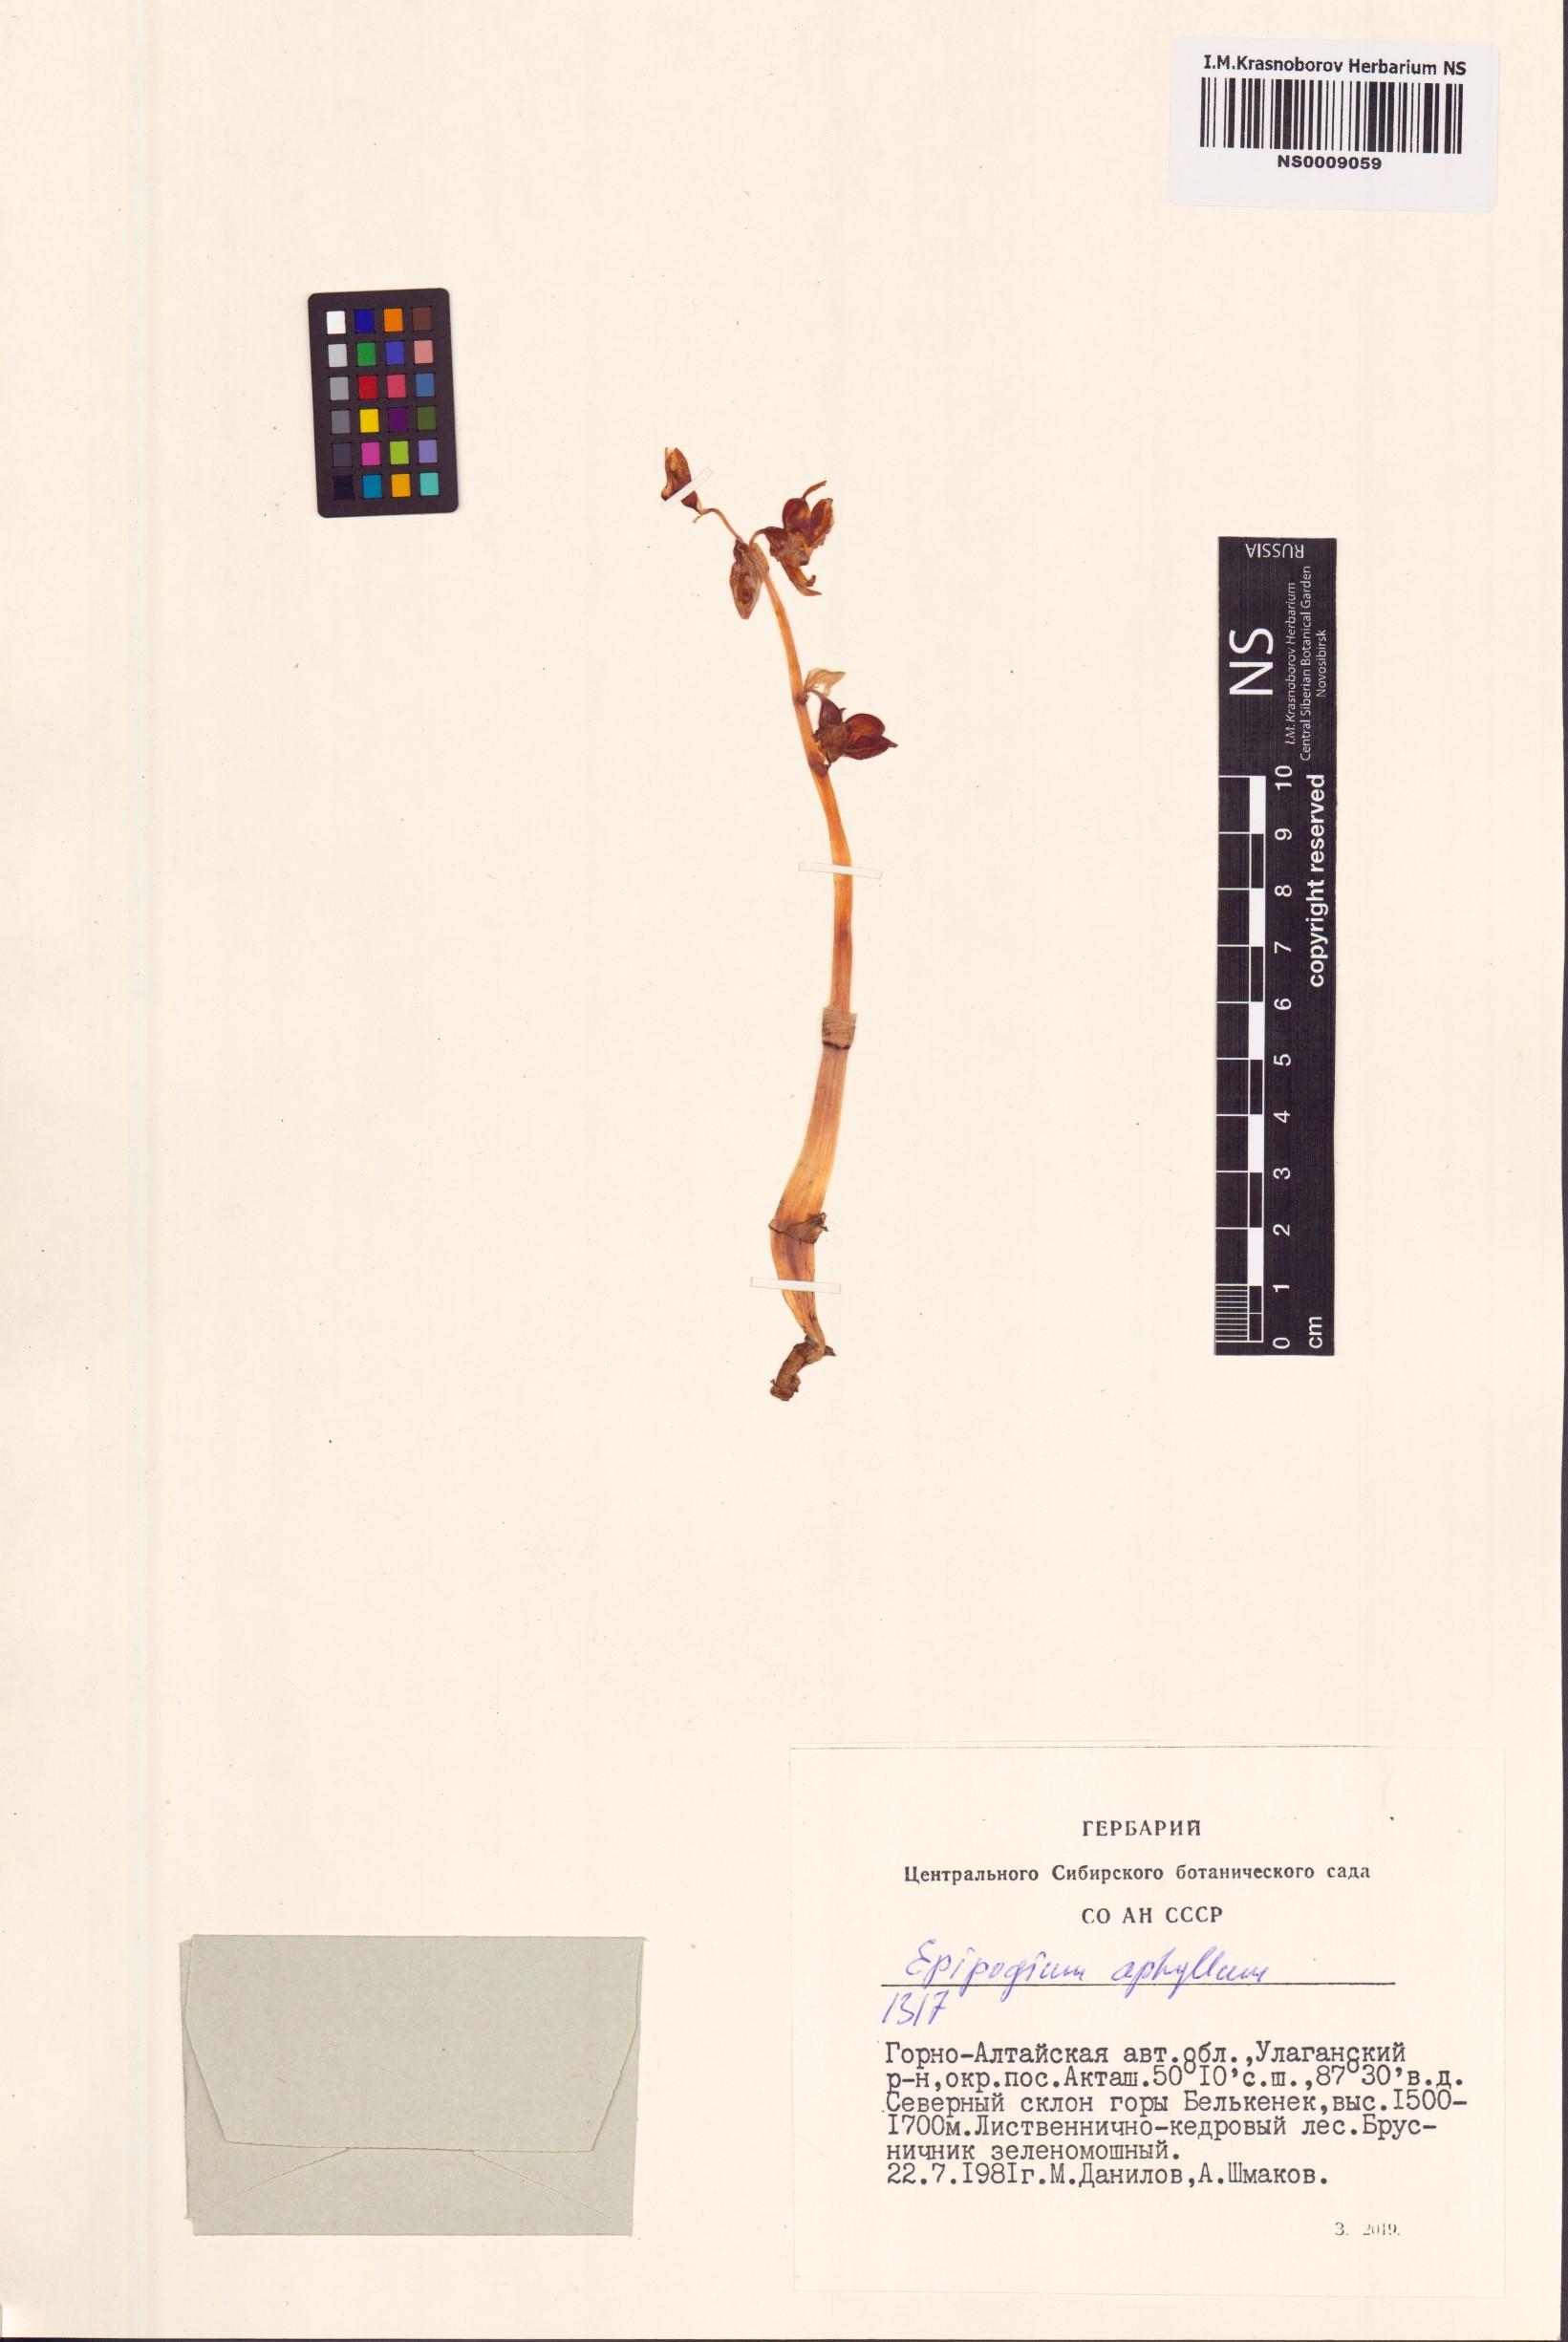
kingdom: Plantae
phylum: Tracheophyta
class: Liliopsida
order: Asparagales
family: Orchidaceae
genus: Epipogium
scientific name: Epipogium aphyllum
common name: Ghost orchid
